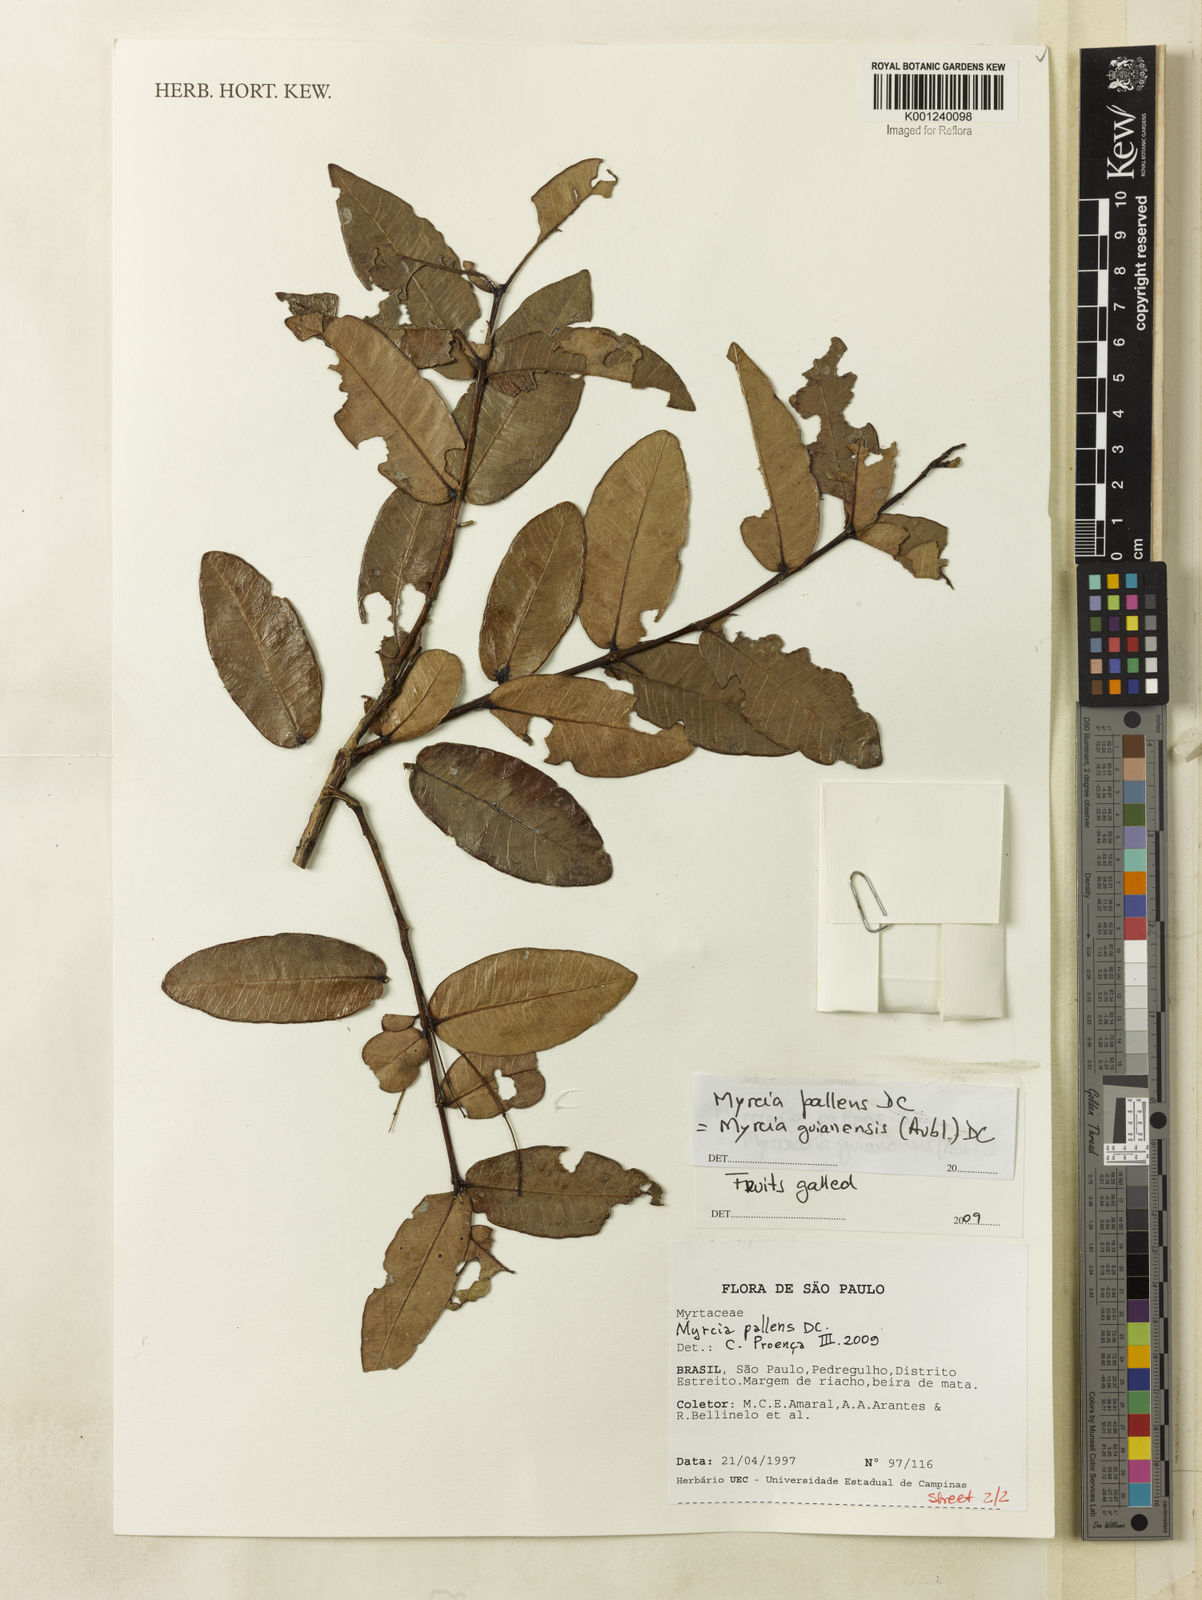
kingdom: Plantae
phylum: Tracheophyta
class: Magnoliopsida
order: Myrtales
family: Myrtaceae
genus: Myrcia
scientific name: Myrcia variabilis
